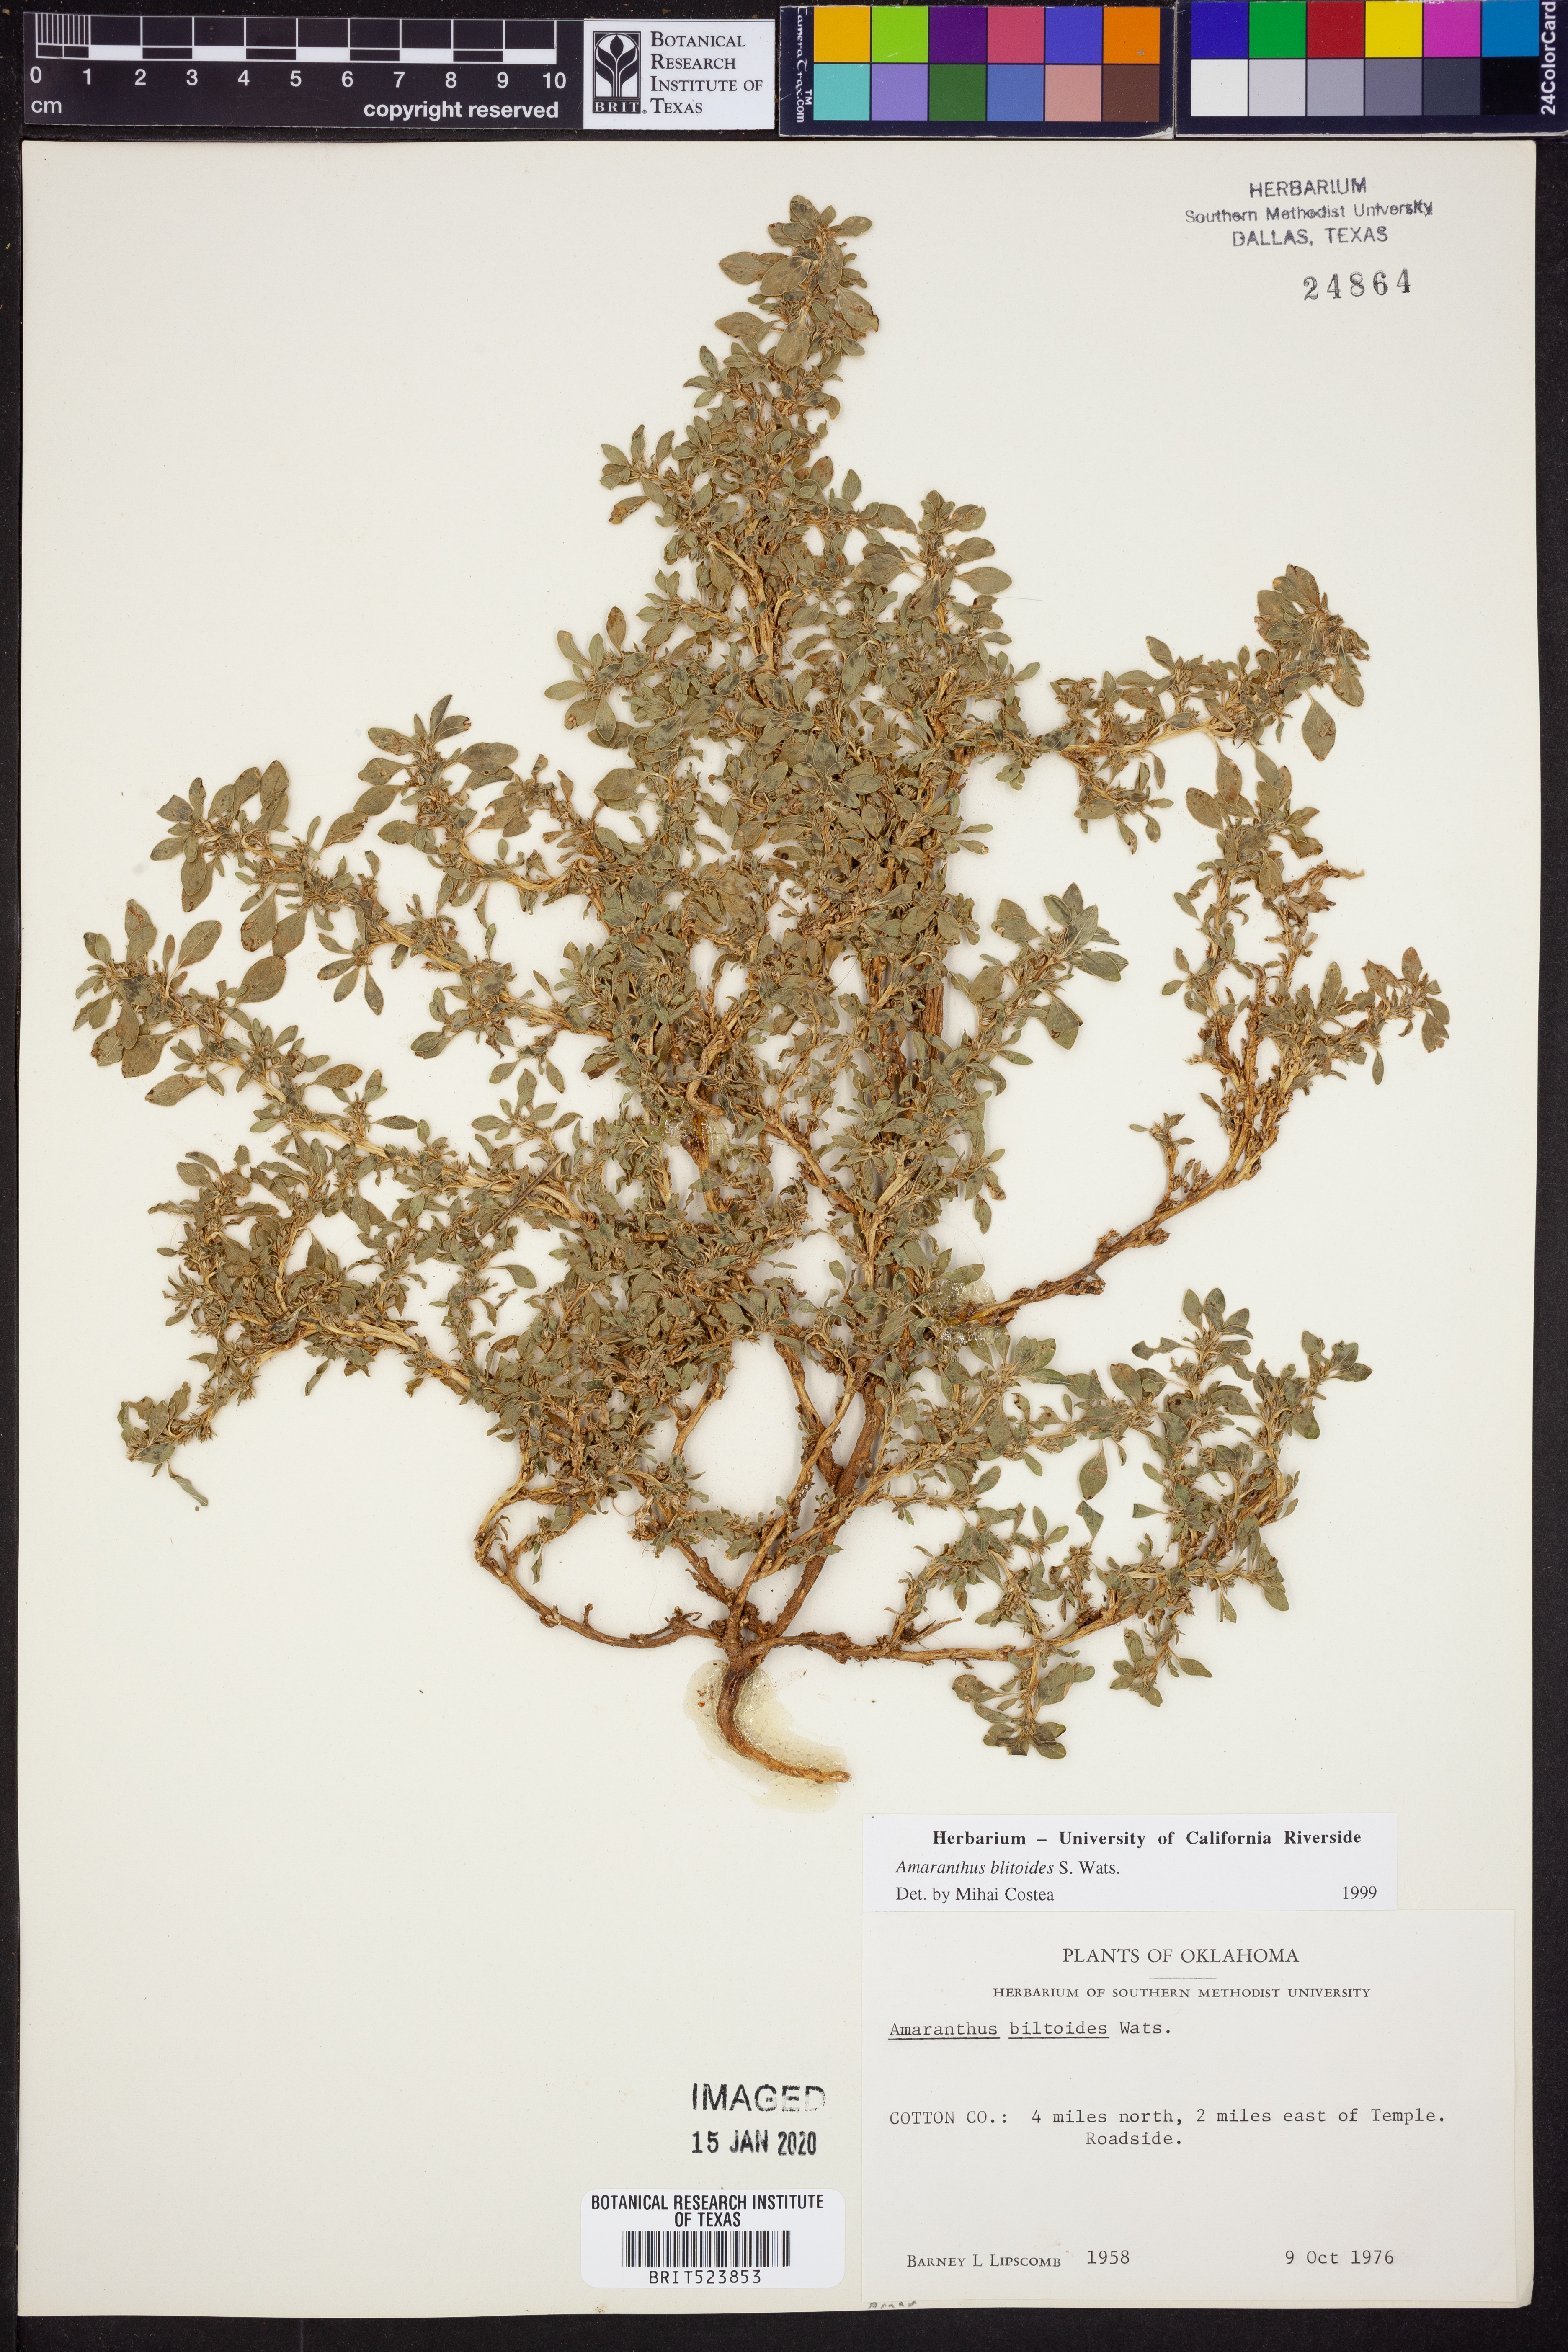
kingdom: Plantae
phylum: Tracheophyta
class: Magnoliopsida
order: Caryophyllales
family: Amaranthaceae
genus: Amaranthus
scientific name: Amaranthus blitoides
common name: Prostrate pigweed
